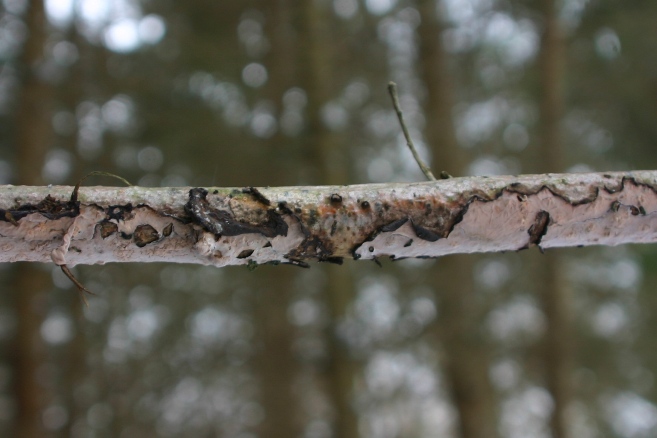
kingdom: Fungi
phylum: Basidiomycota
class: Agaricomycetes
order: Russulales
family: Peniophoraceae
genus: Peniophora
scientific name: Peniophora quercina
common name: ege-voksskind
